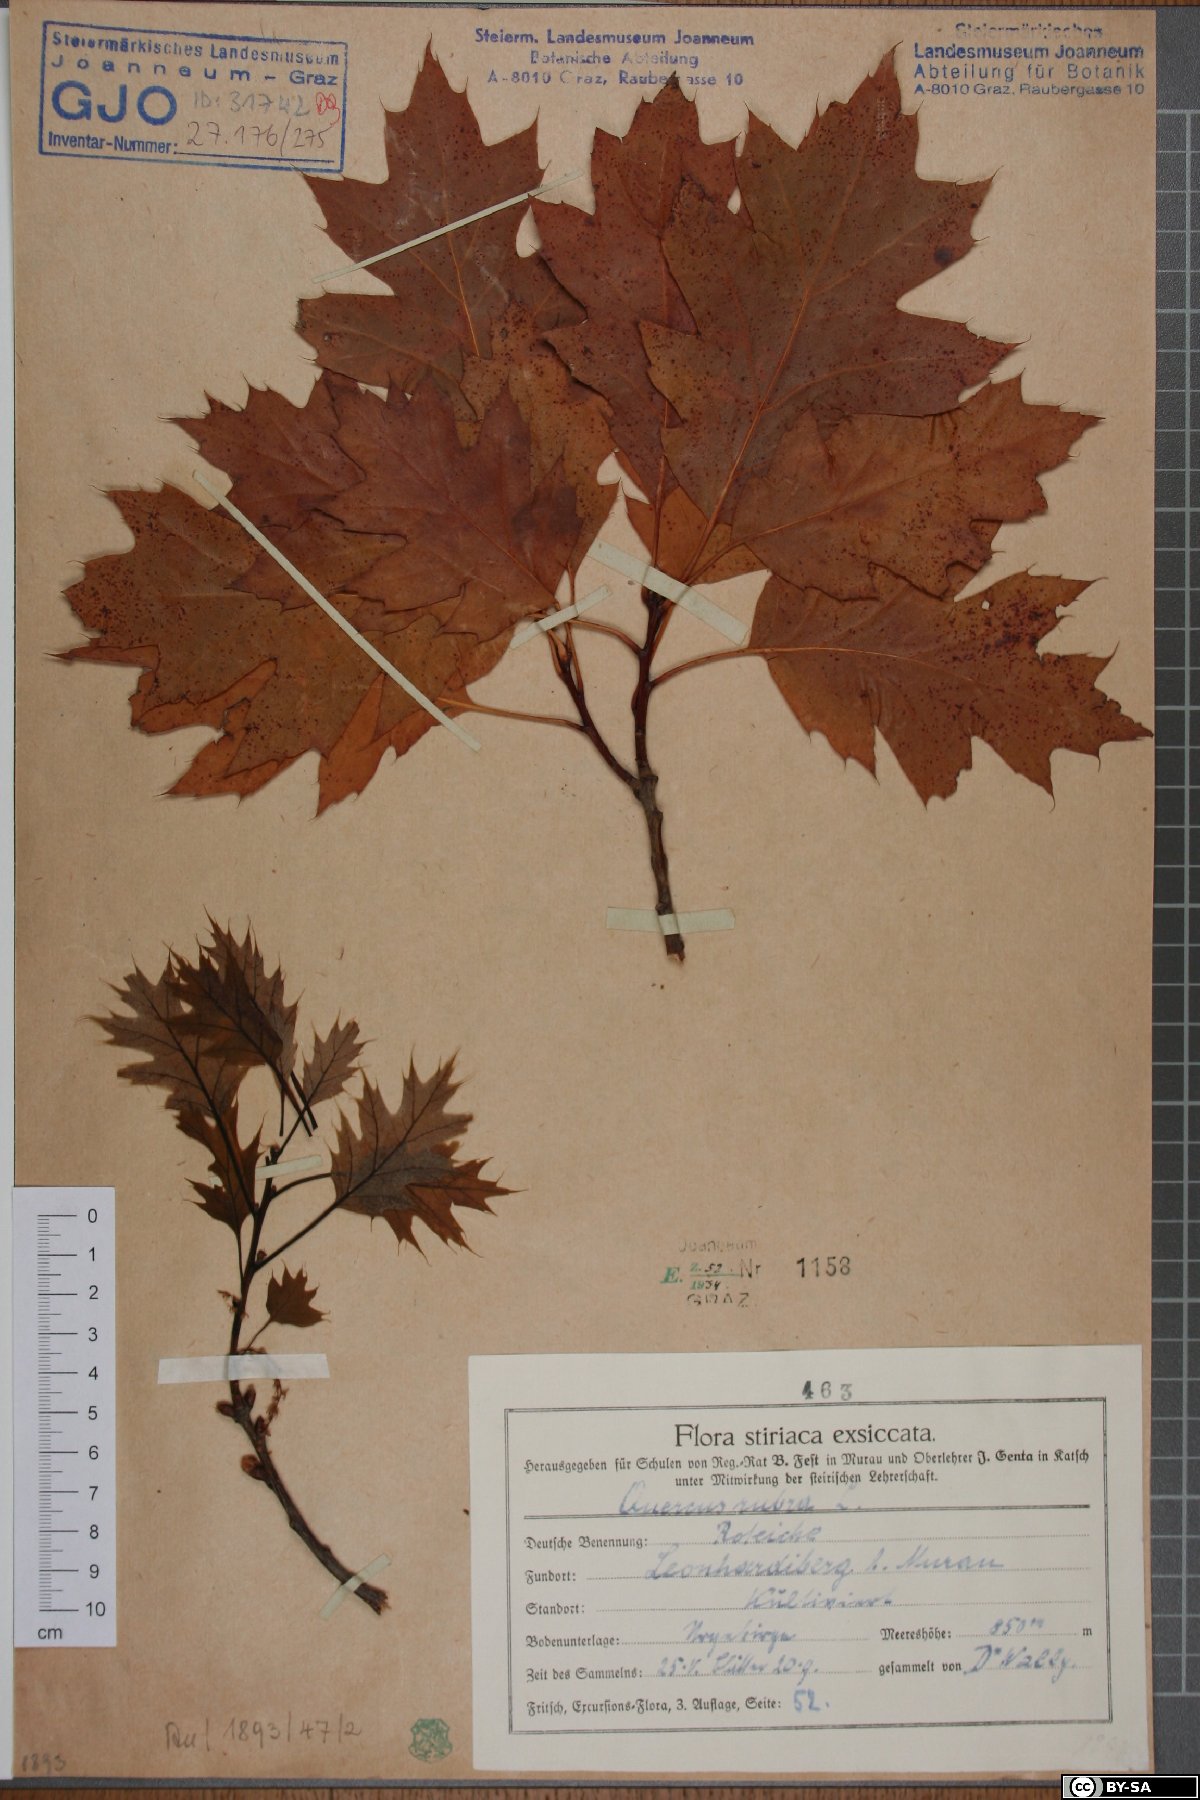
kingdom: Plantae
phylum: Tracheophyta
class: Magnoliopsida
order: Fagales
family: Fagaceae
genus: Quercus
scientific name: Quercus rubra
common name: Red oak
